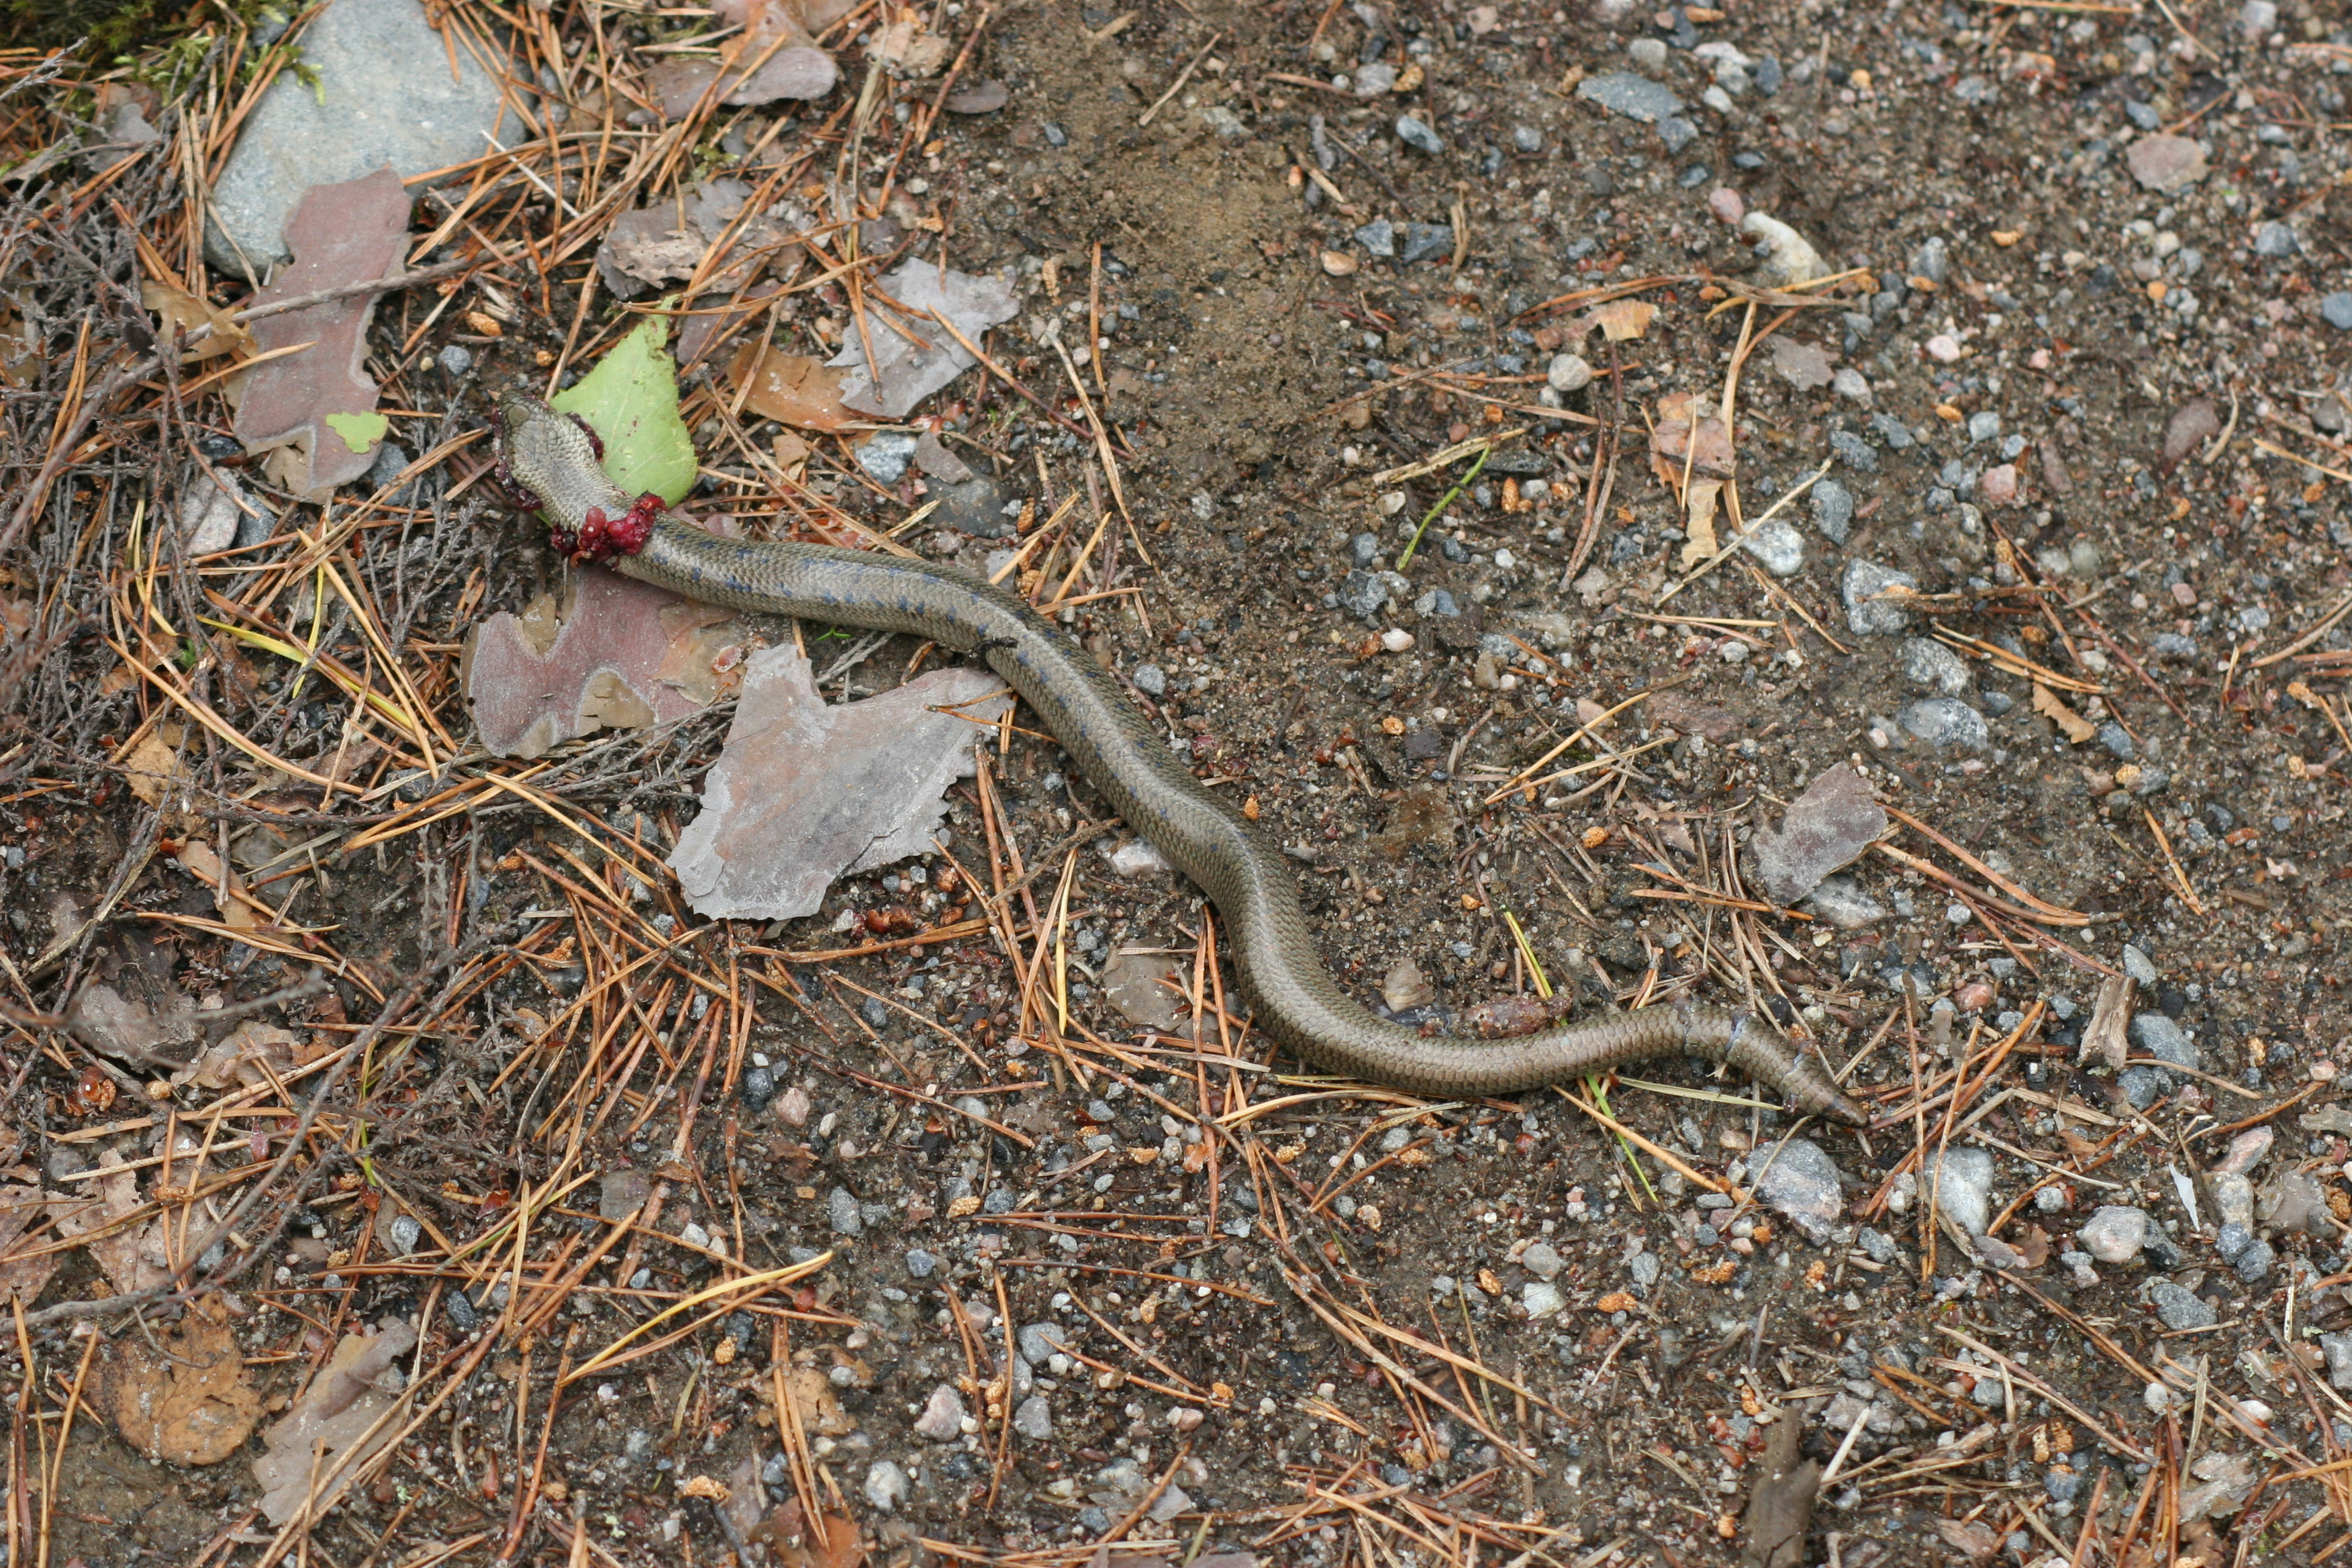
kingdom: Animalia
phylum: Chordata
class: Squamata
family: Anguidae
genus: Anguis
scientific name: Anguis colchica
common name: Slow worm
